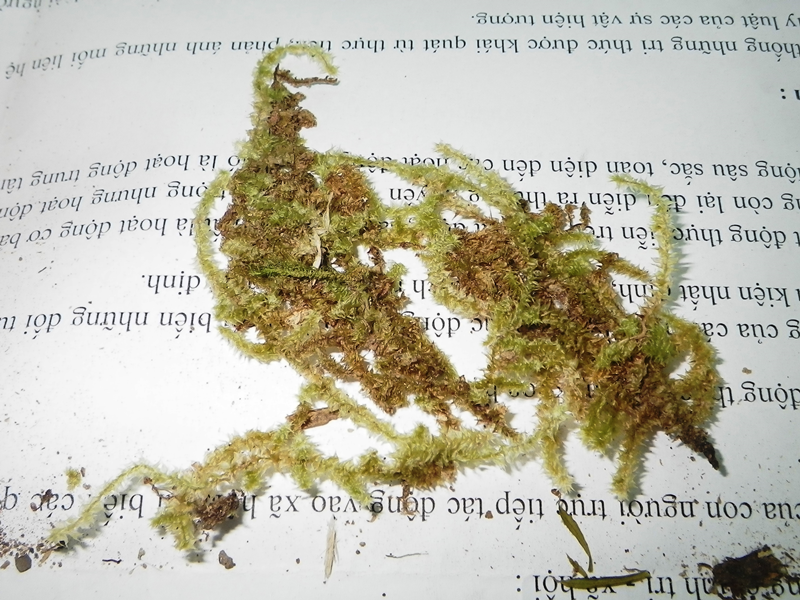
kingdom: Plantae
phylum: Bryophyta
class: Bryopsida
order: Hypnales
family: Meteoriaceae
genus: Aerobryopsis
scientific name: Aerobryopsis subdivergens
